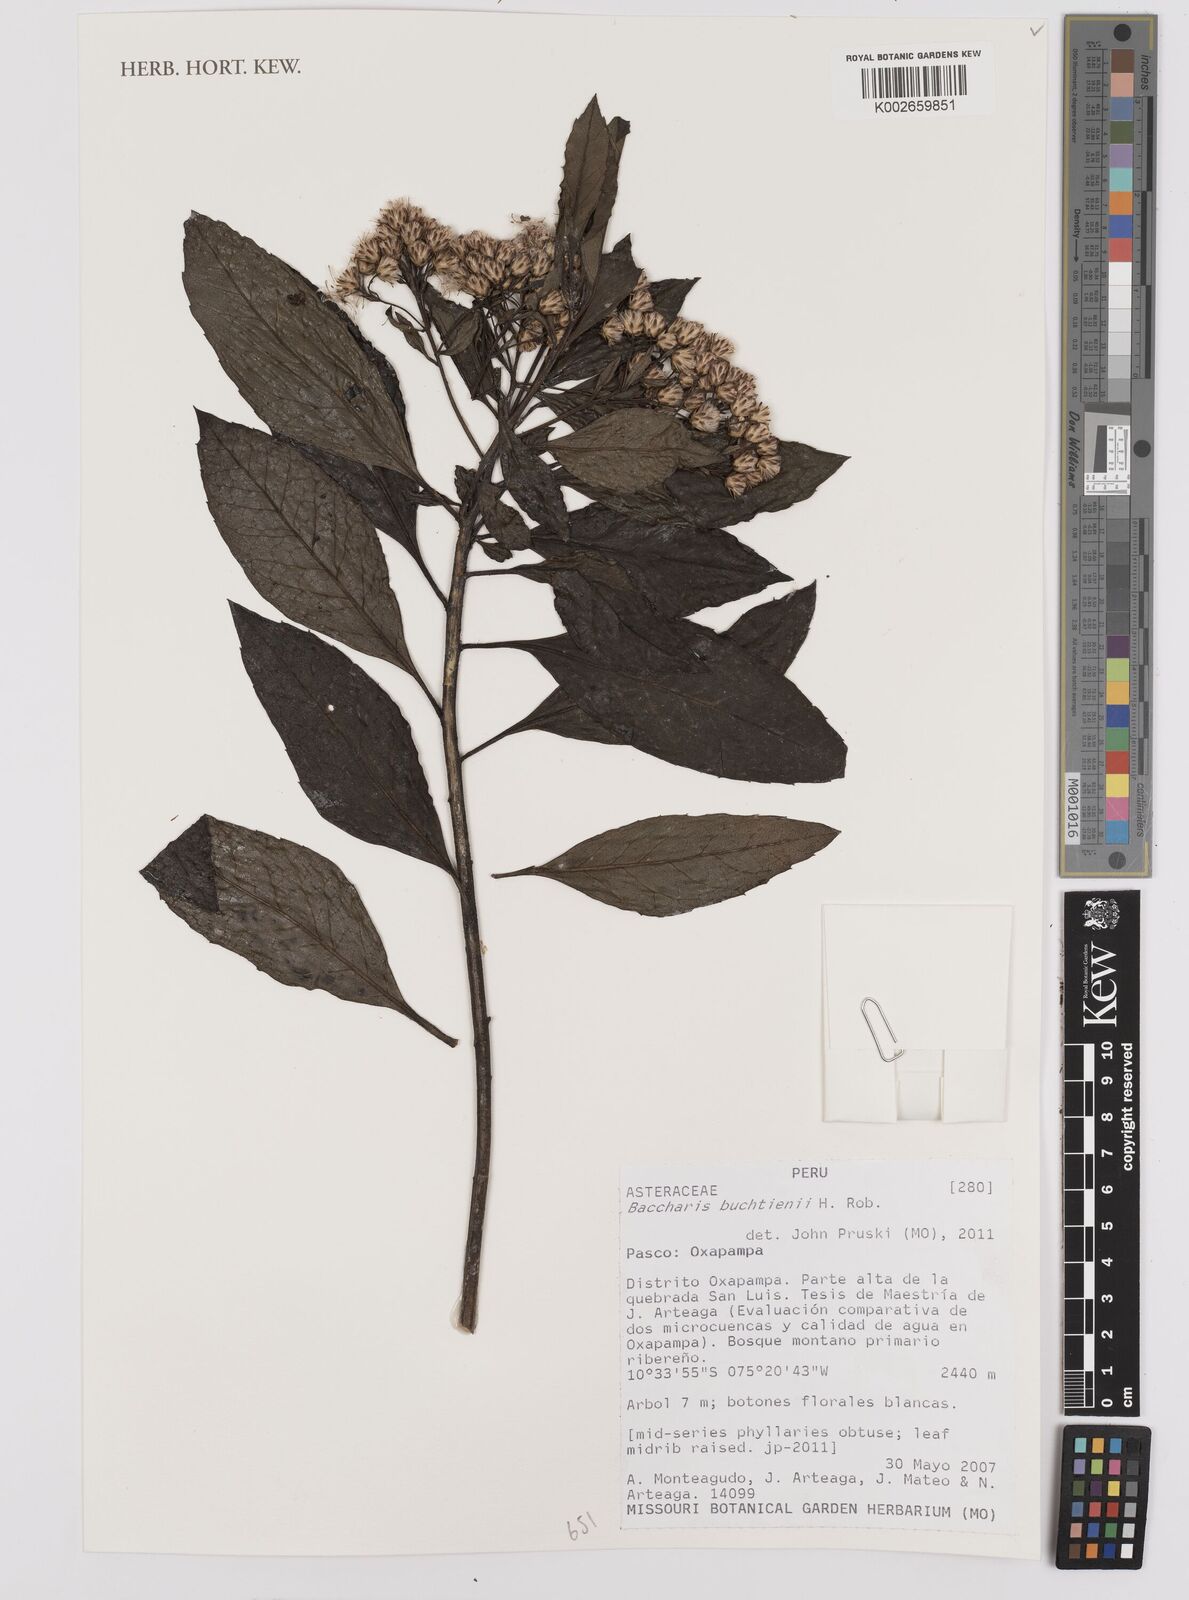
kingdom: Plantae
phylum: Tracheophyta
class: Magnoliopsida
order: Asterales
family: Asteraceae
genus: Baccharis
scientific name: Baccharis buchtienii
